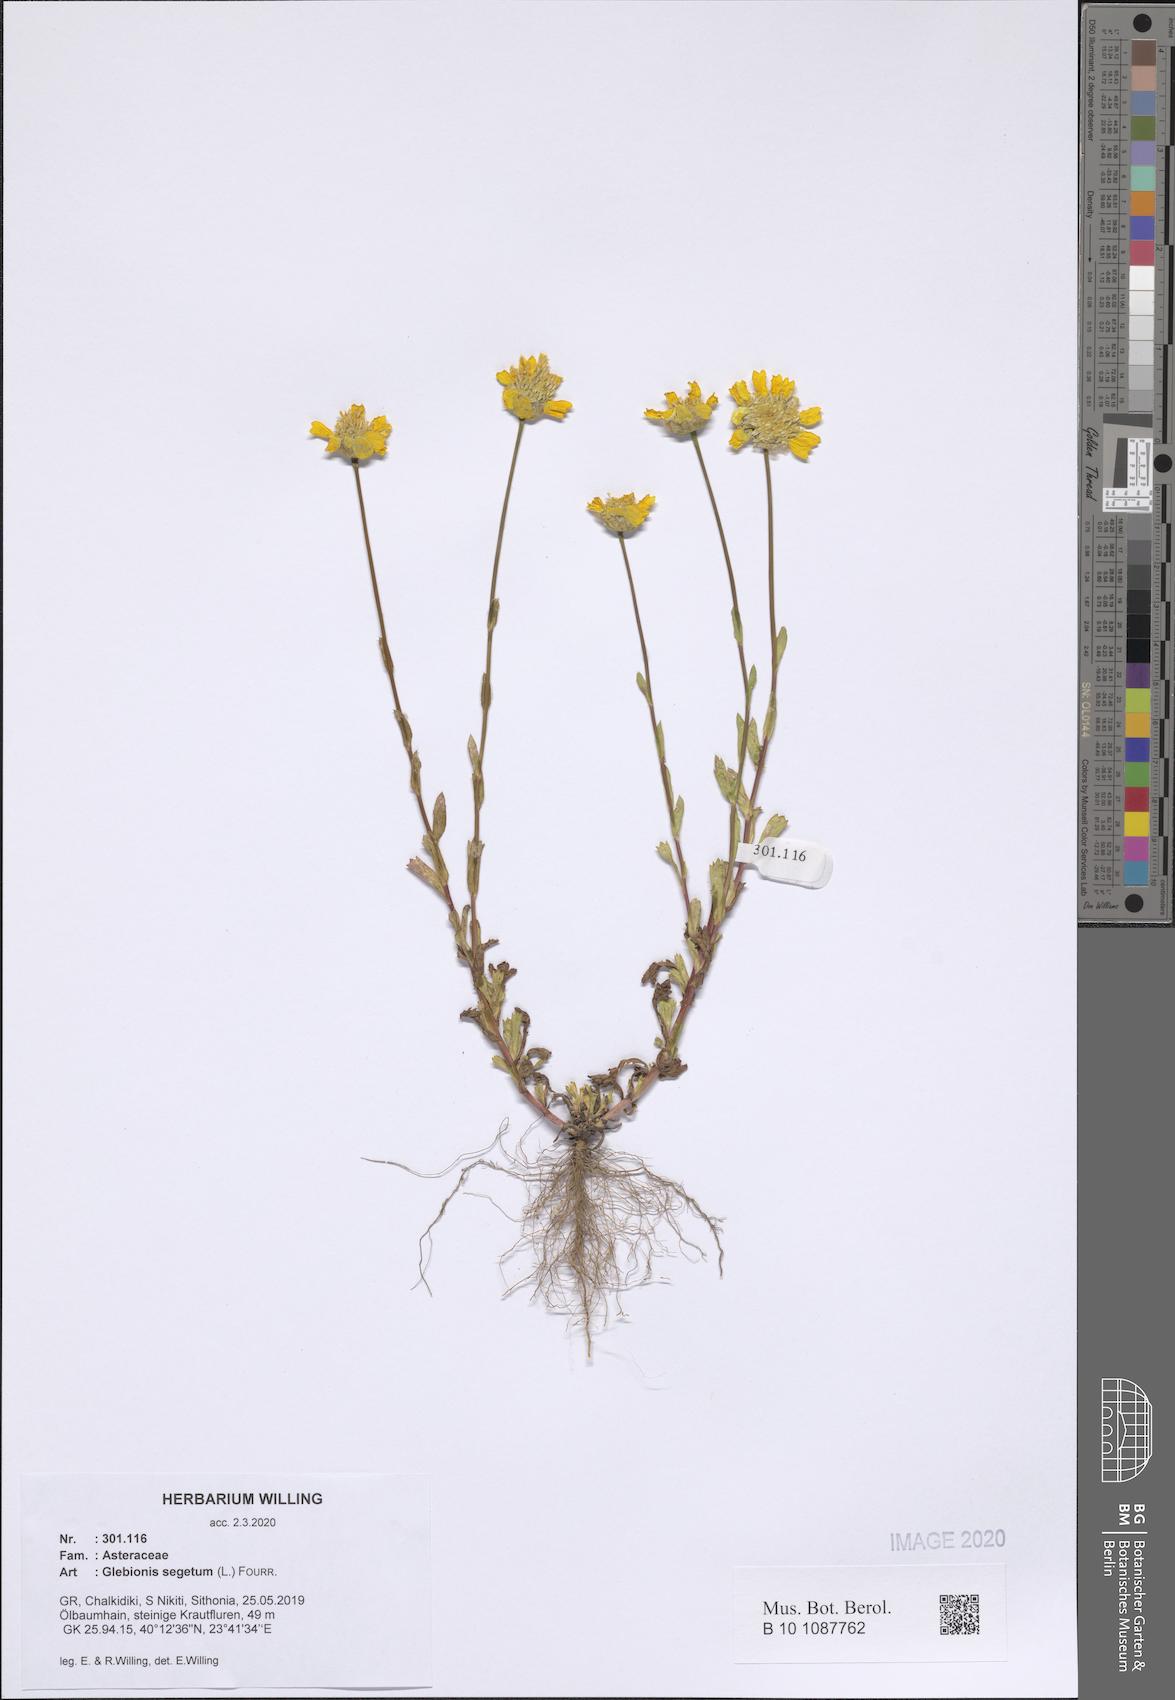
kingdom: Plantae
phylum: Tracheophyta
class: Magnoliopsida
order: Asterales
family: Asteraceae
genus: Glebionis
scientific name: Glebionis segetum
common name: Corndaisy
